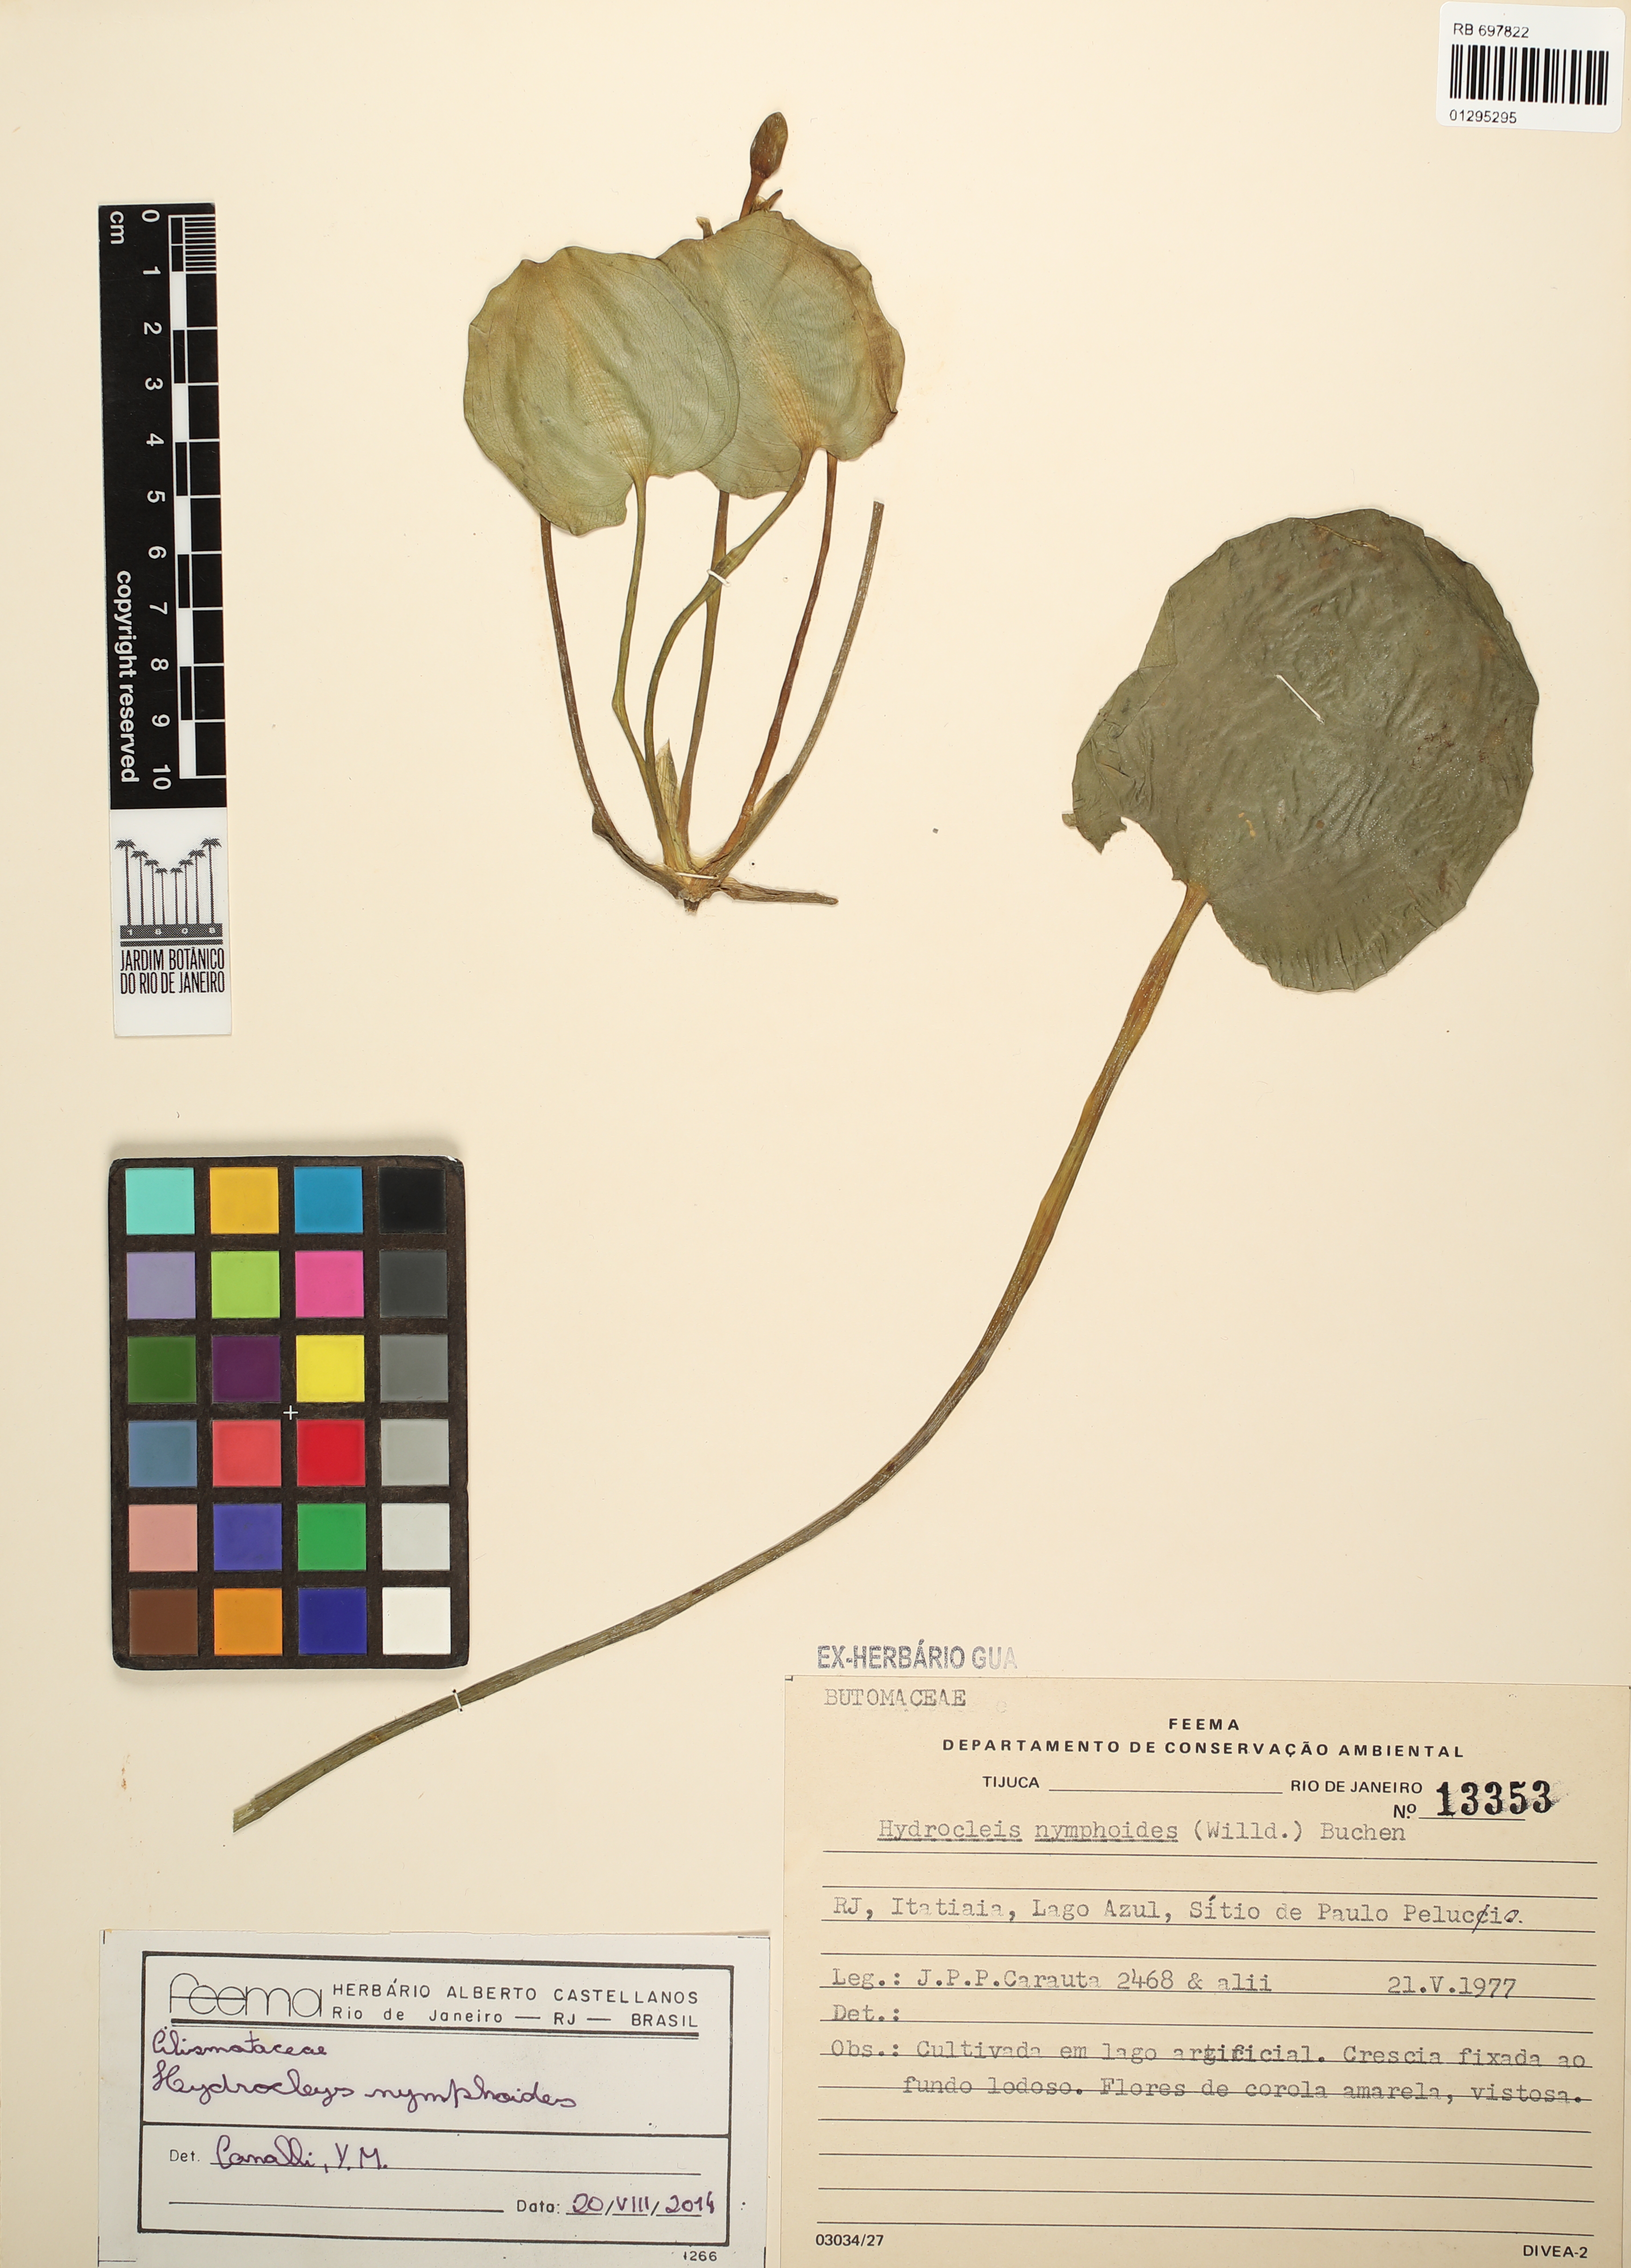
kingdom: Plantae
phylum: Tracheophyta
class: Liliopsida
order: Alismatales
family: Alismataceae
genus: Hydrocleys
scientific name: Hydrocleys nymphoides
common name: Water-poppy
